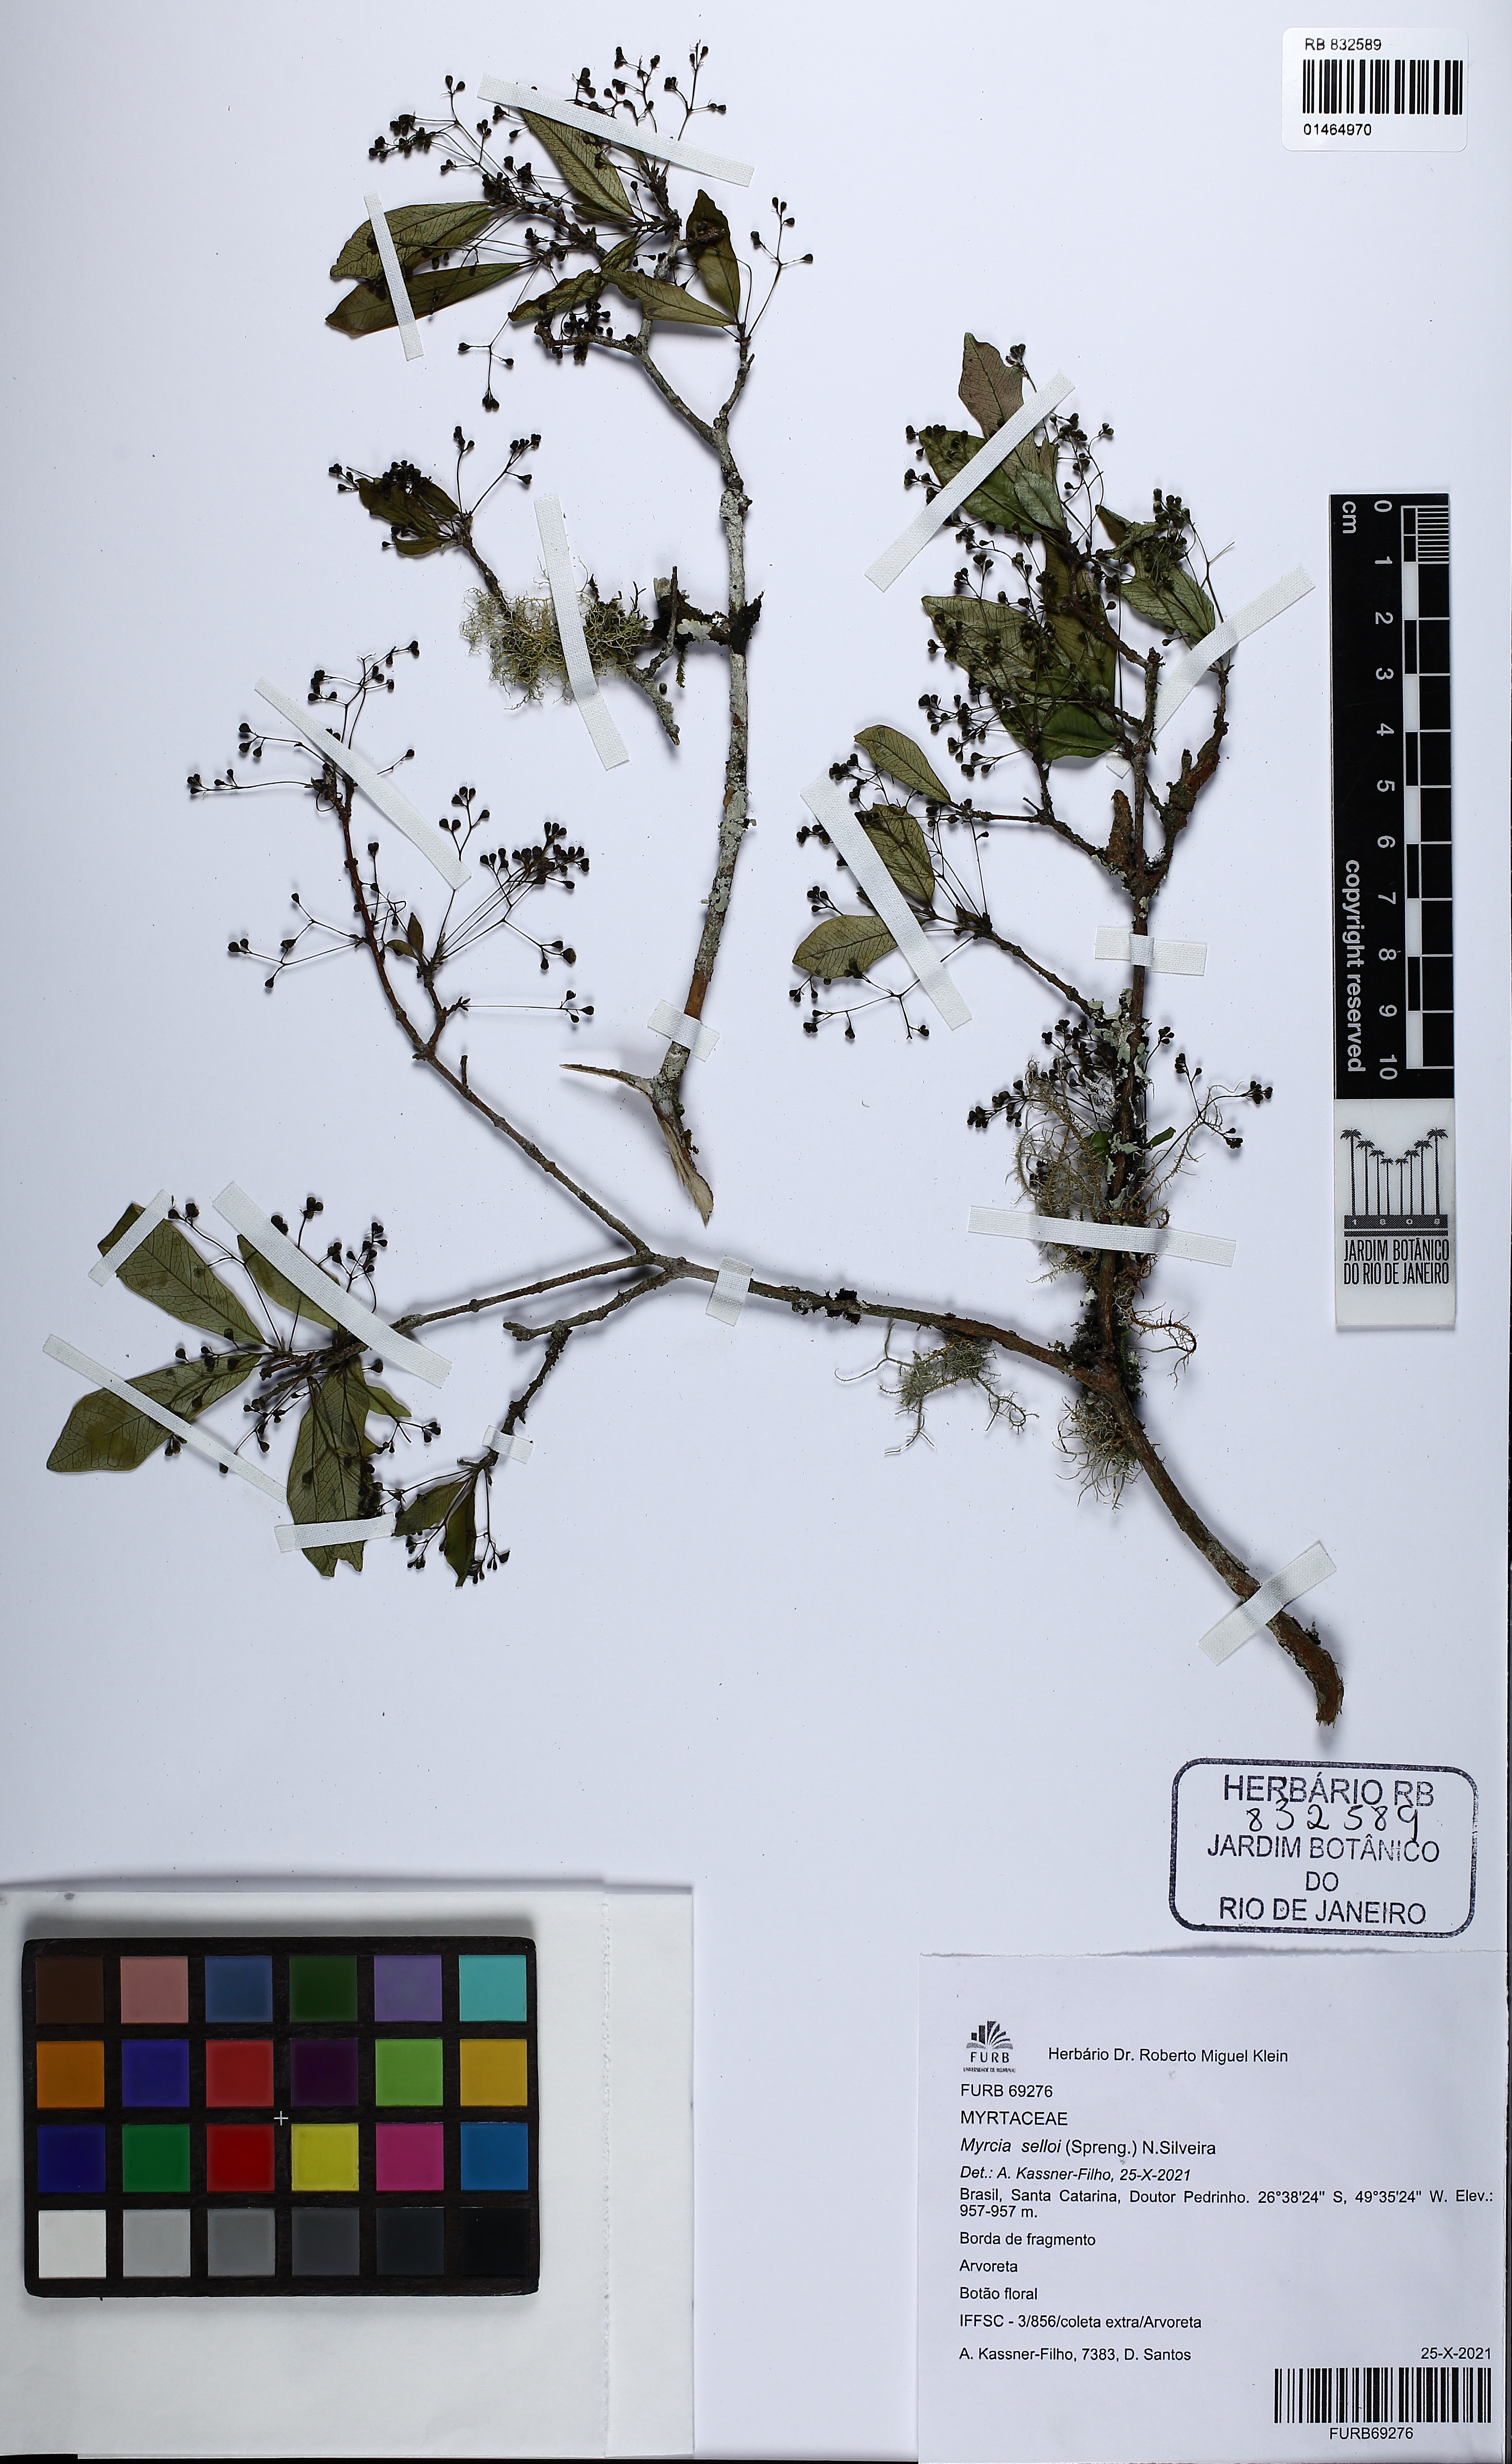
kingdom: Plantae
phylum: Tracheophyta
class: Magnoliopsida
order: Myrtales
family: Myrtaceae
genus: Myrcia
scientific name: Myrcia selloi
